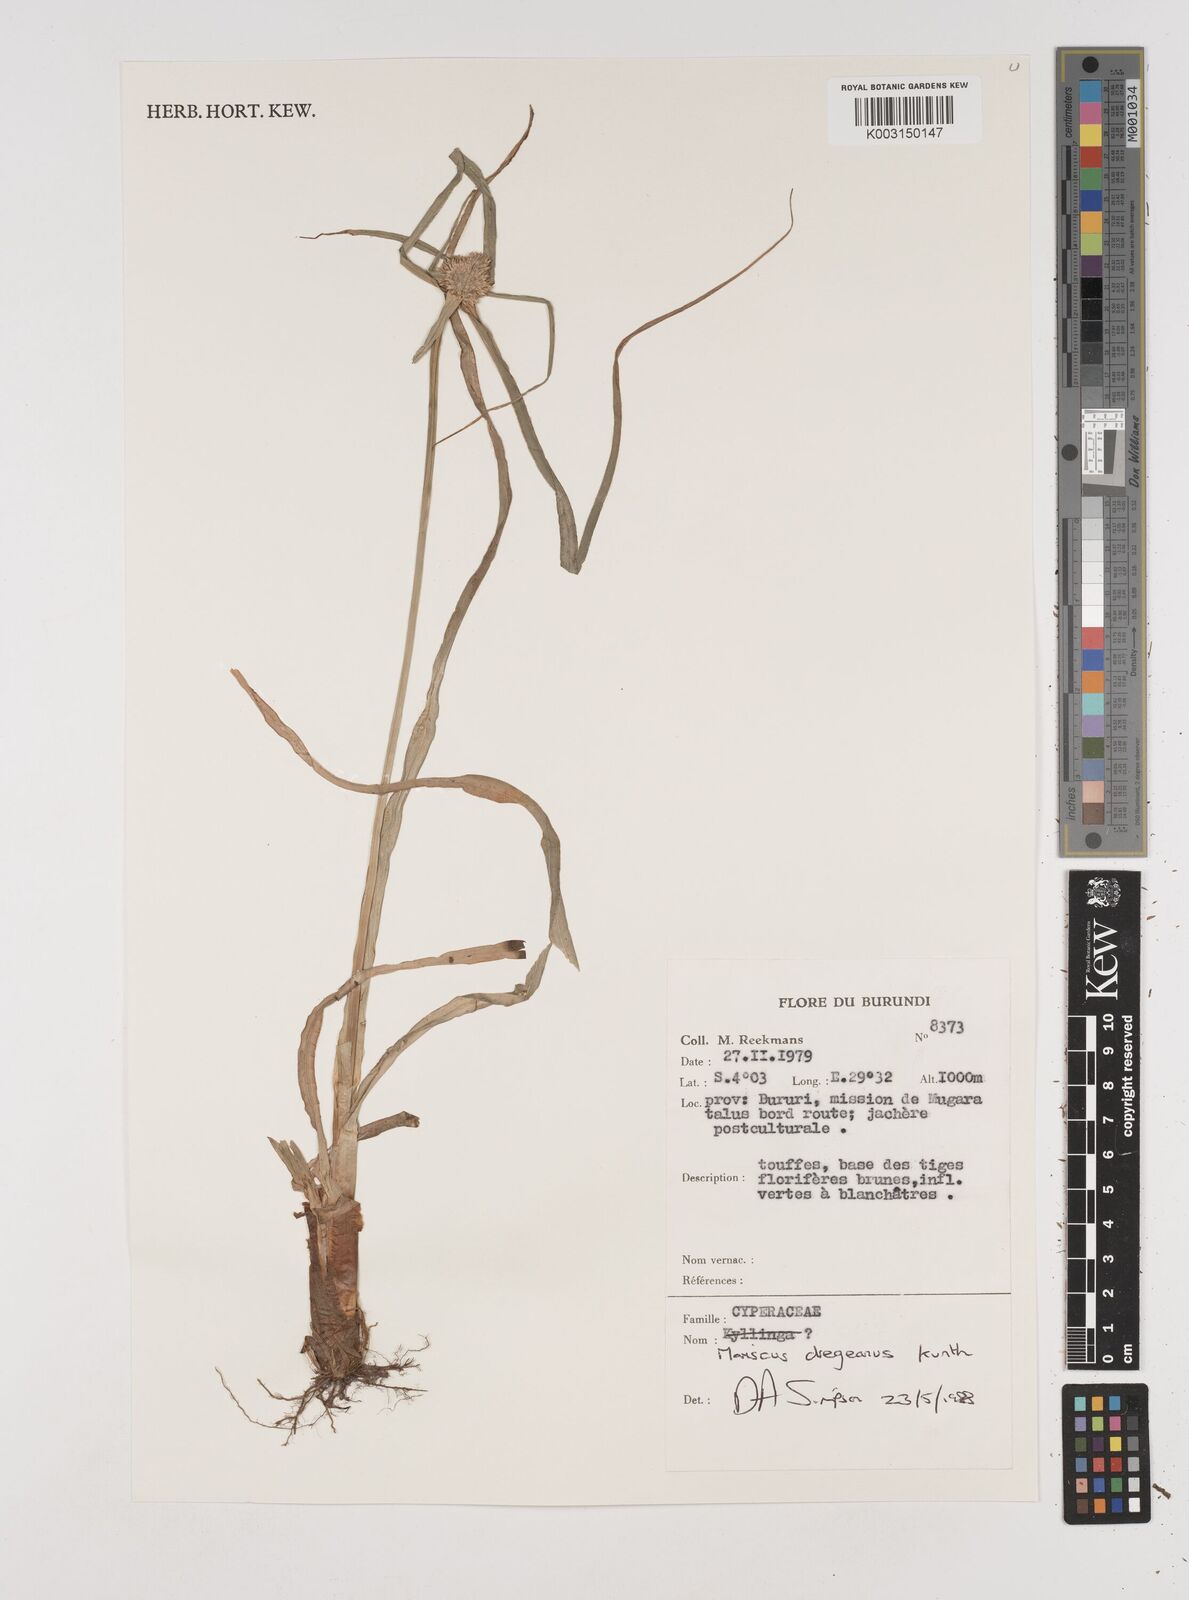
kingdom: Plantae
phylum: Tracheophyta
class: Liliopsida
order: Poales
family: Cyperaceae
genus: Cyperus
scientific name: Cyperus dubius
